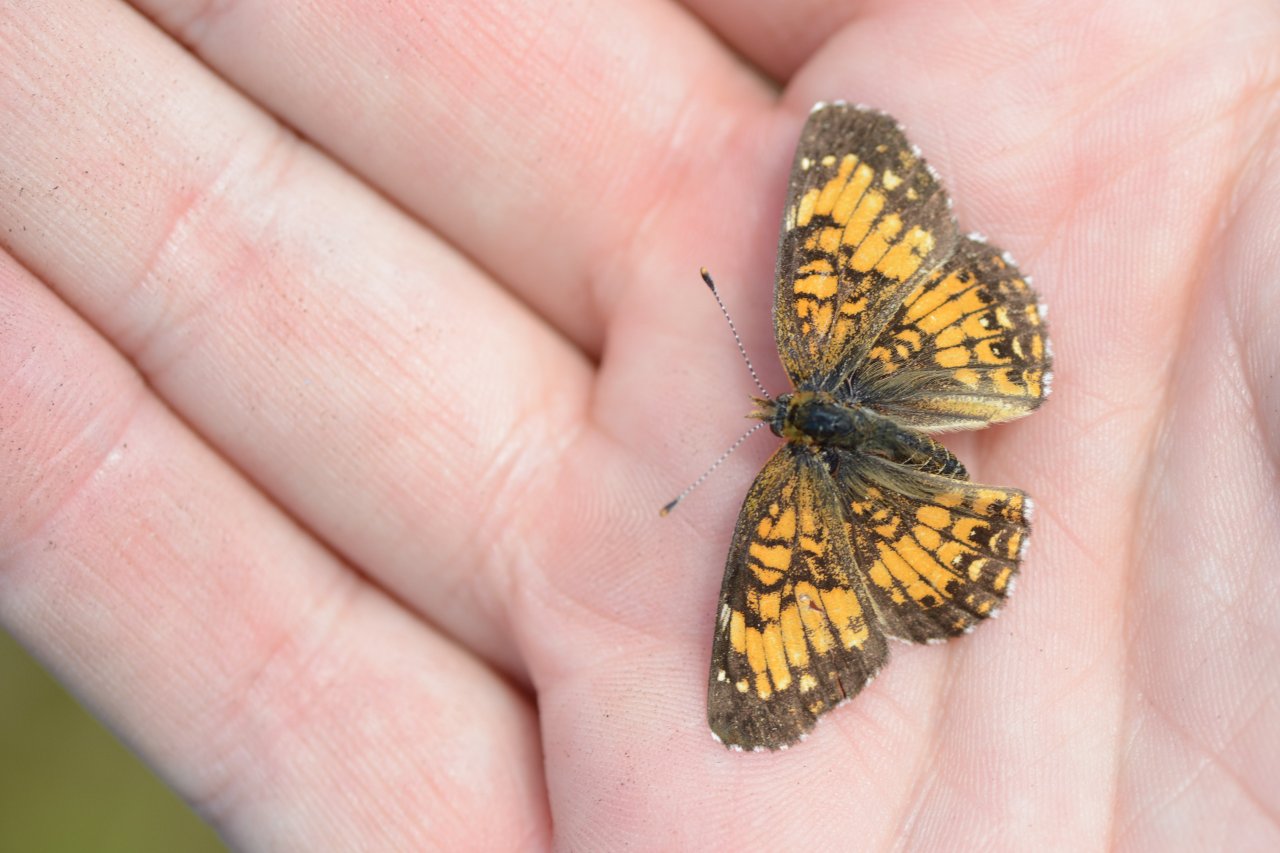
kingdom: Animalia
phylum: Arthropoda
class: Insecta
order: Lepidoptera
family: Nymphalidae
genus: Chlosyne
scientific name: Chlosyne harrisii
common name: Harris's Checkerspot
